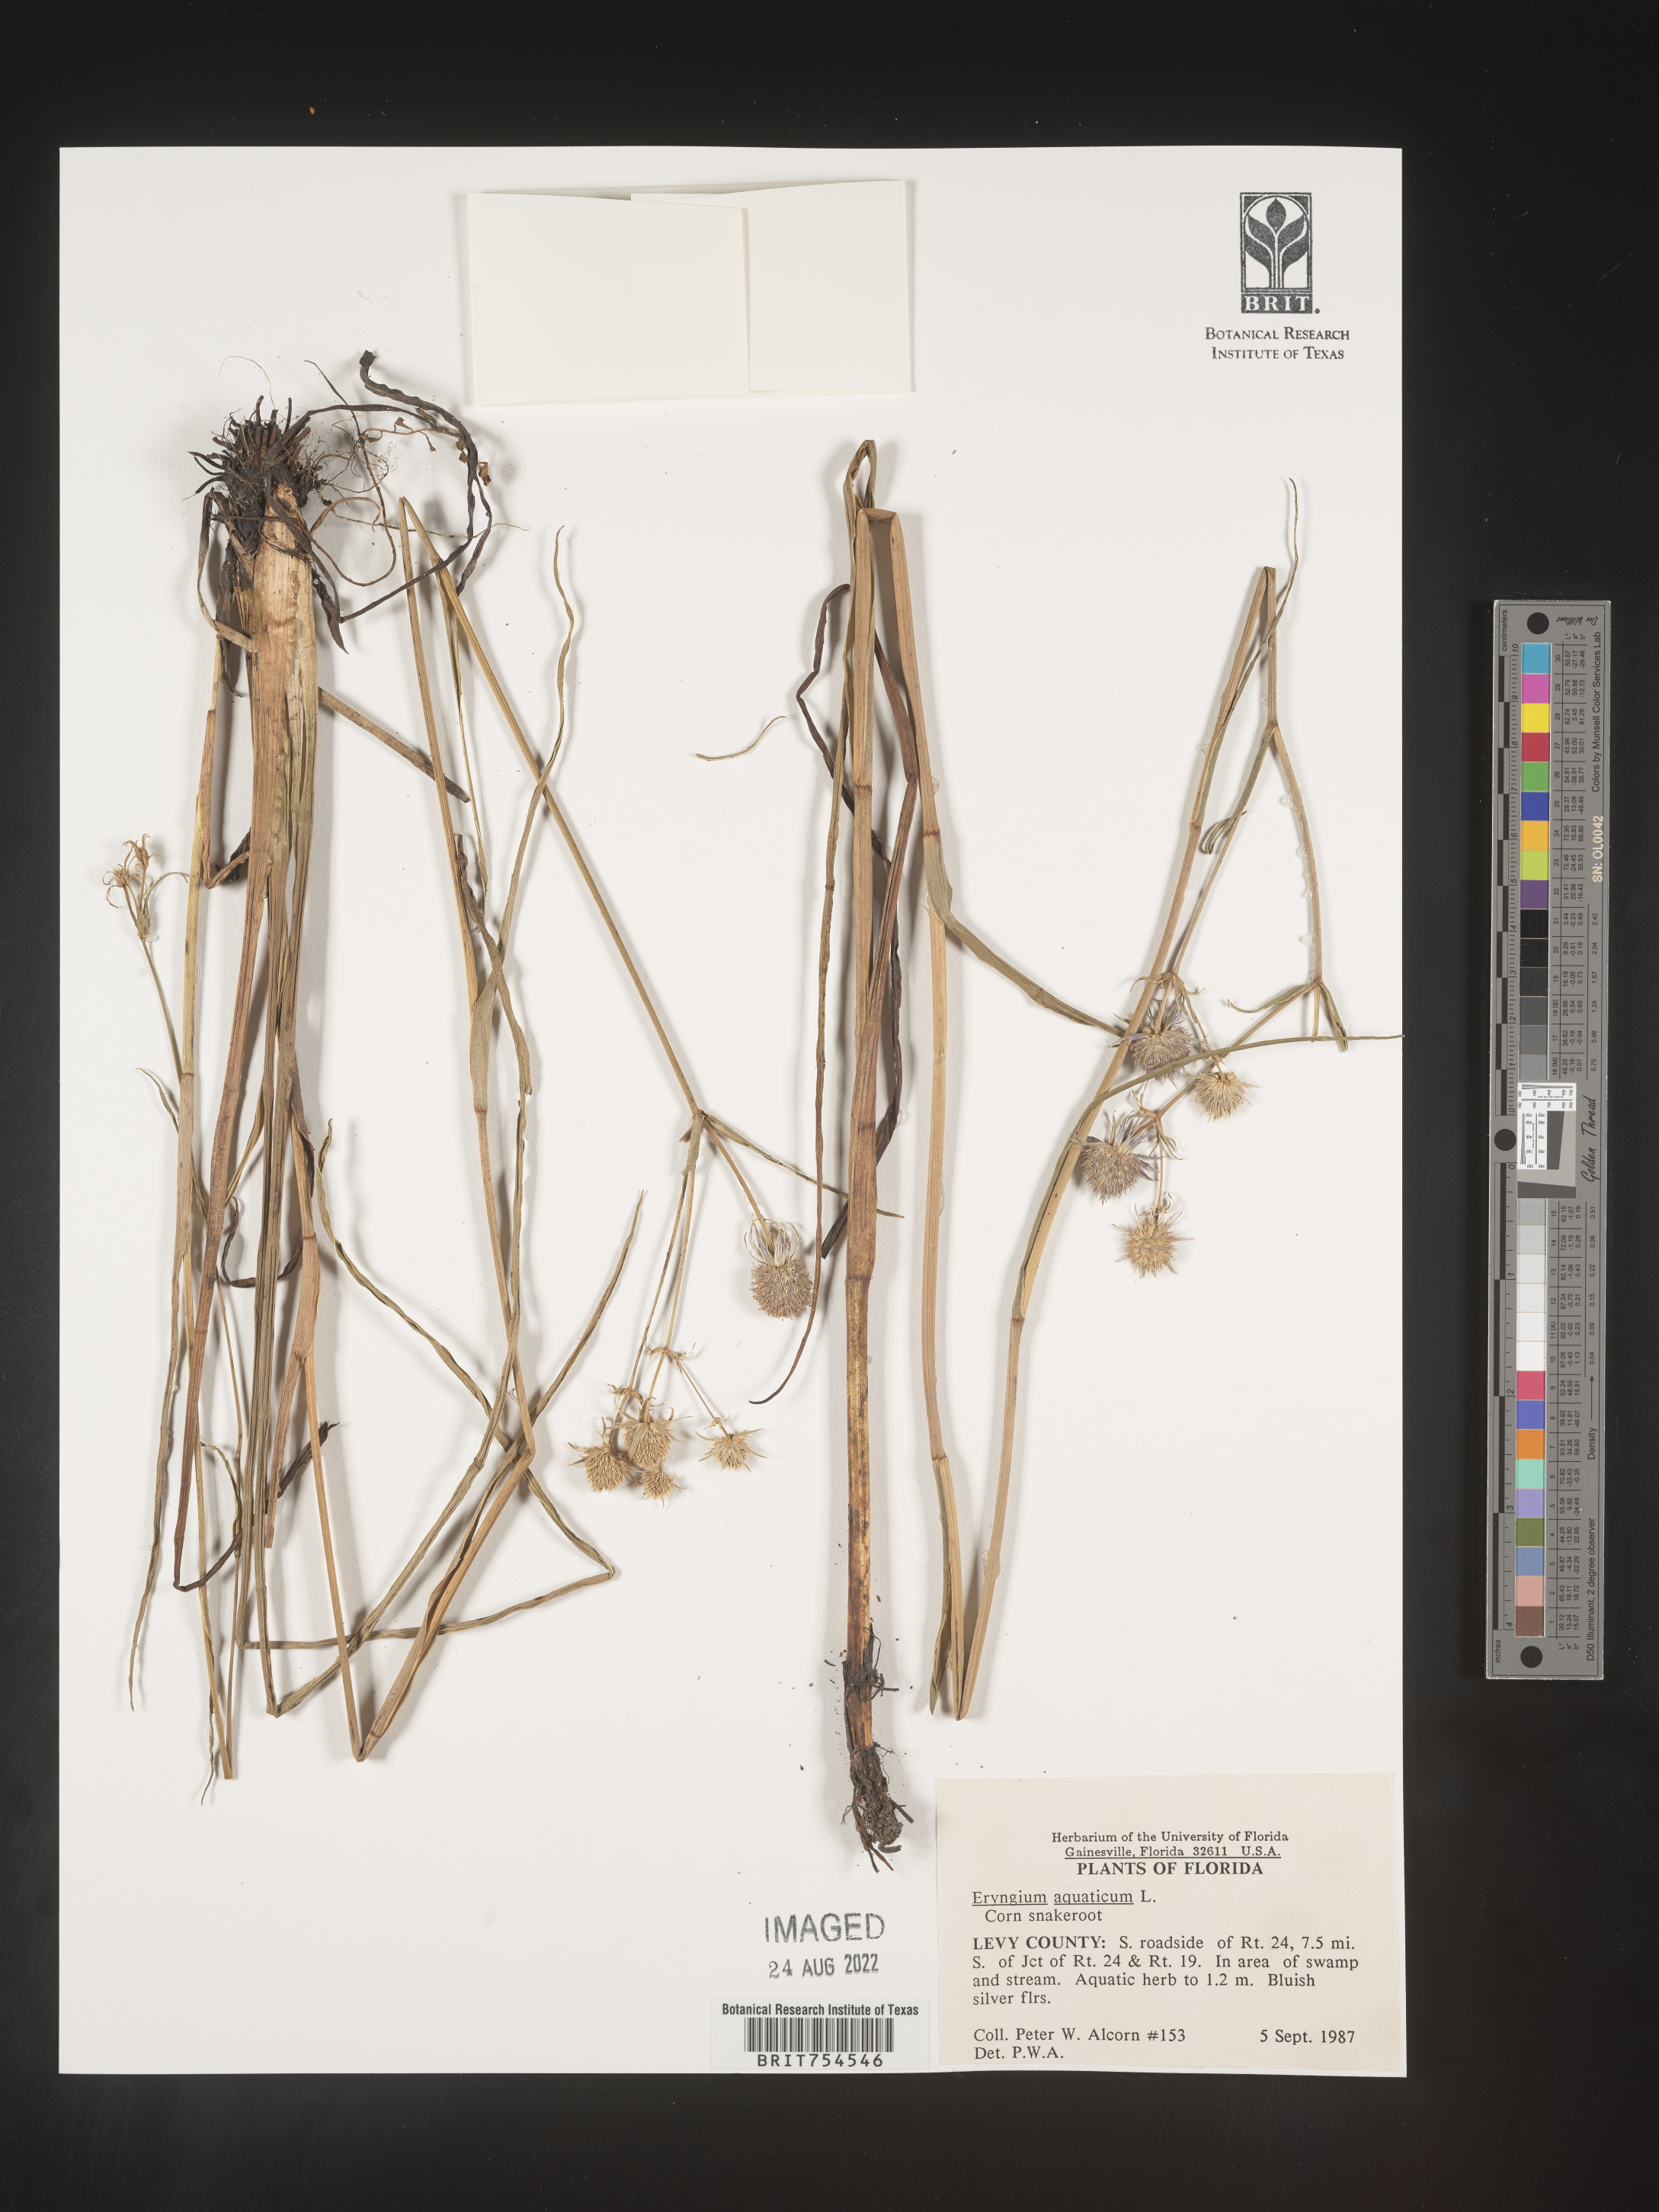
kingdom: Plantae
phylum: Tracheophyta
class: Magnoliopsida
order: Apiales
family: Apiaceae
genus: Eryngium
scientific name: Eryngium
